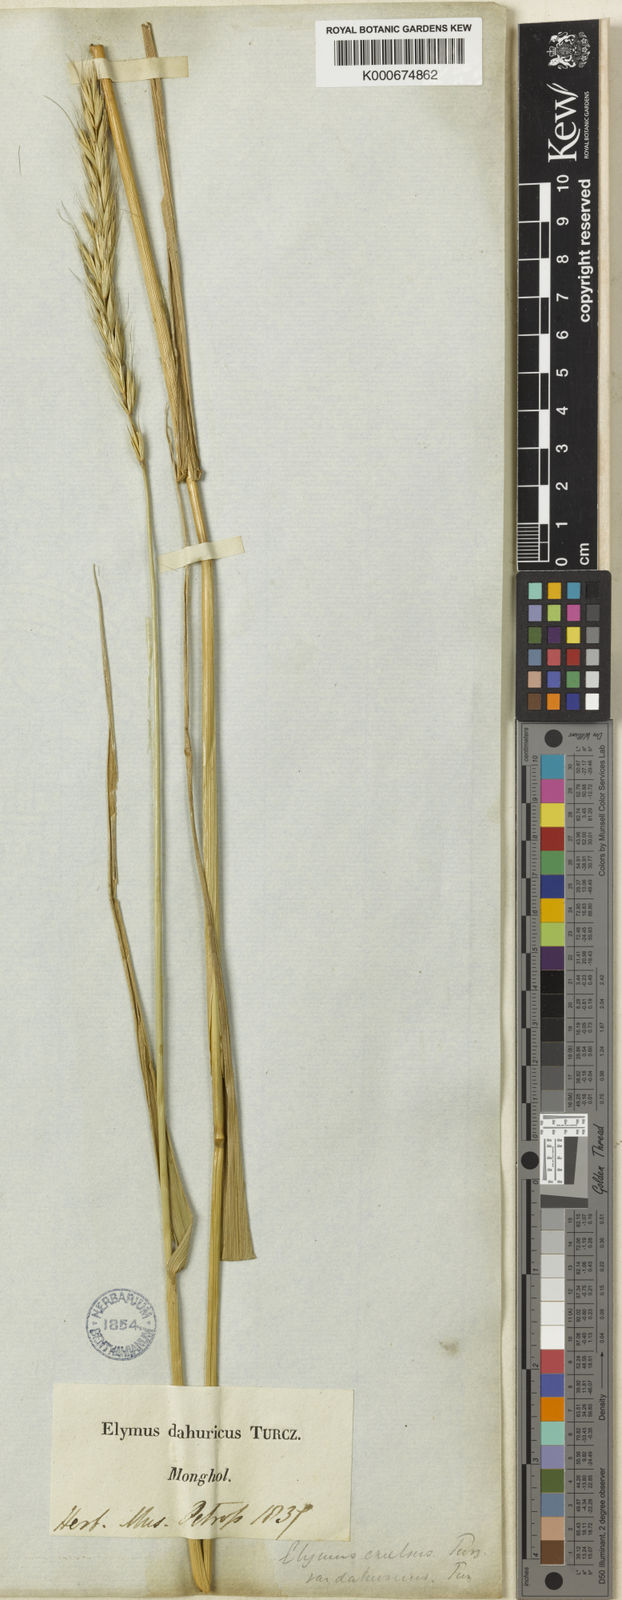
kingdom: Plantae
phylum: Tracheophyta
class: Liliopsida
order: Poales
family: Poaceae
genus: Elymus
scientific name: Elymus
